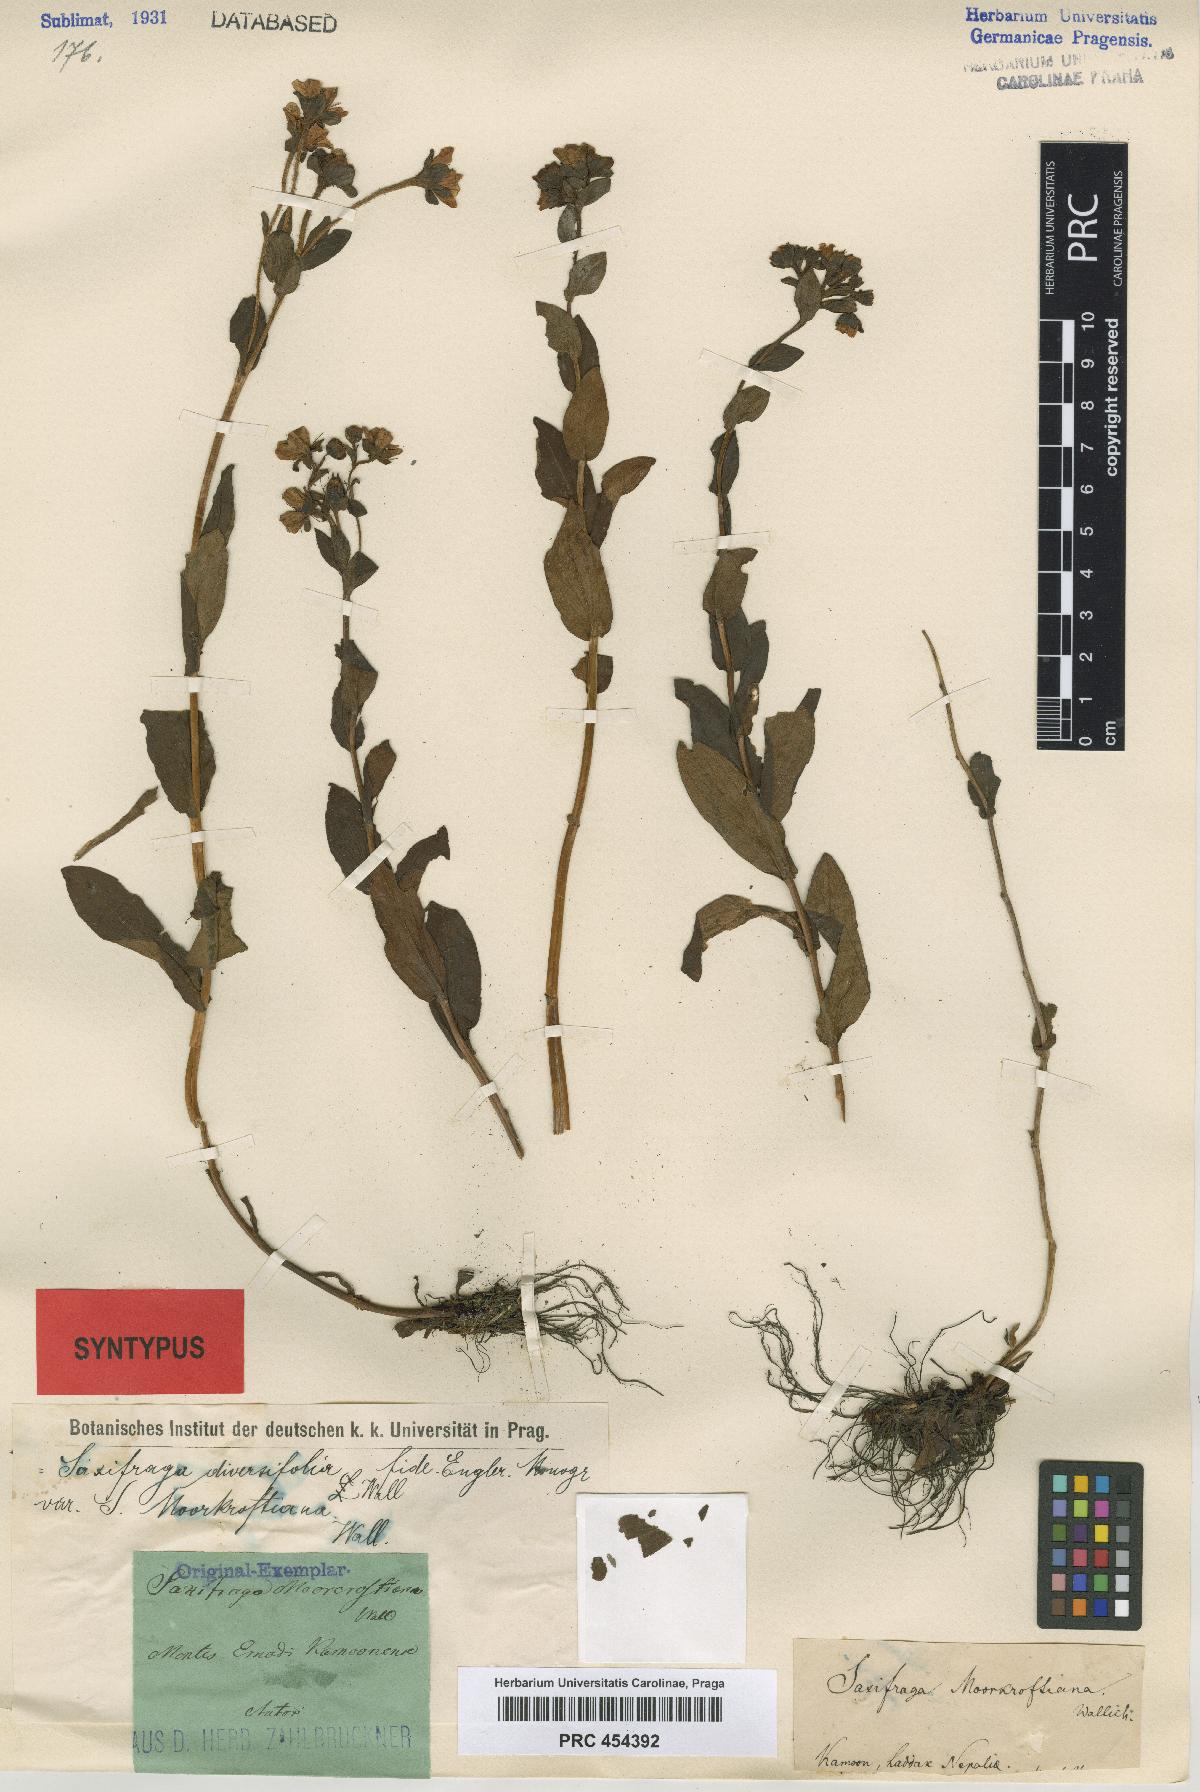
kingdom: Plantae
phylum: Tracheophyta
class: Magnoliopsida
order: Saxifragales
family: Saxifragaceae
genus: Saxifraga
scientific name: Saxifraga moorcroftiana
